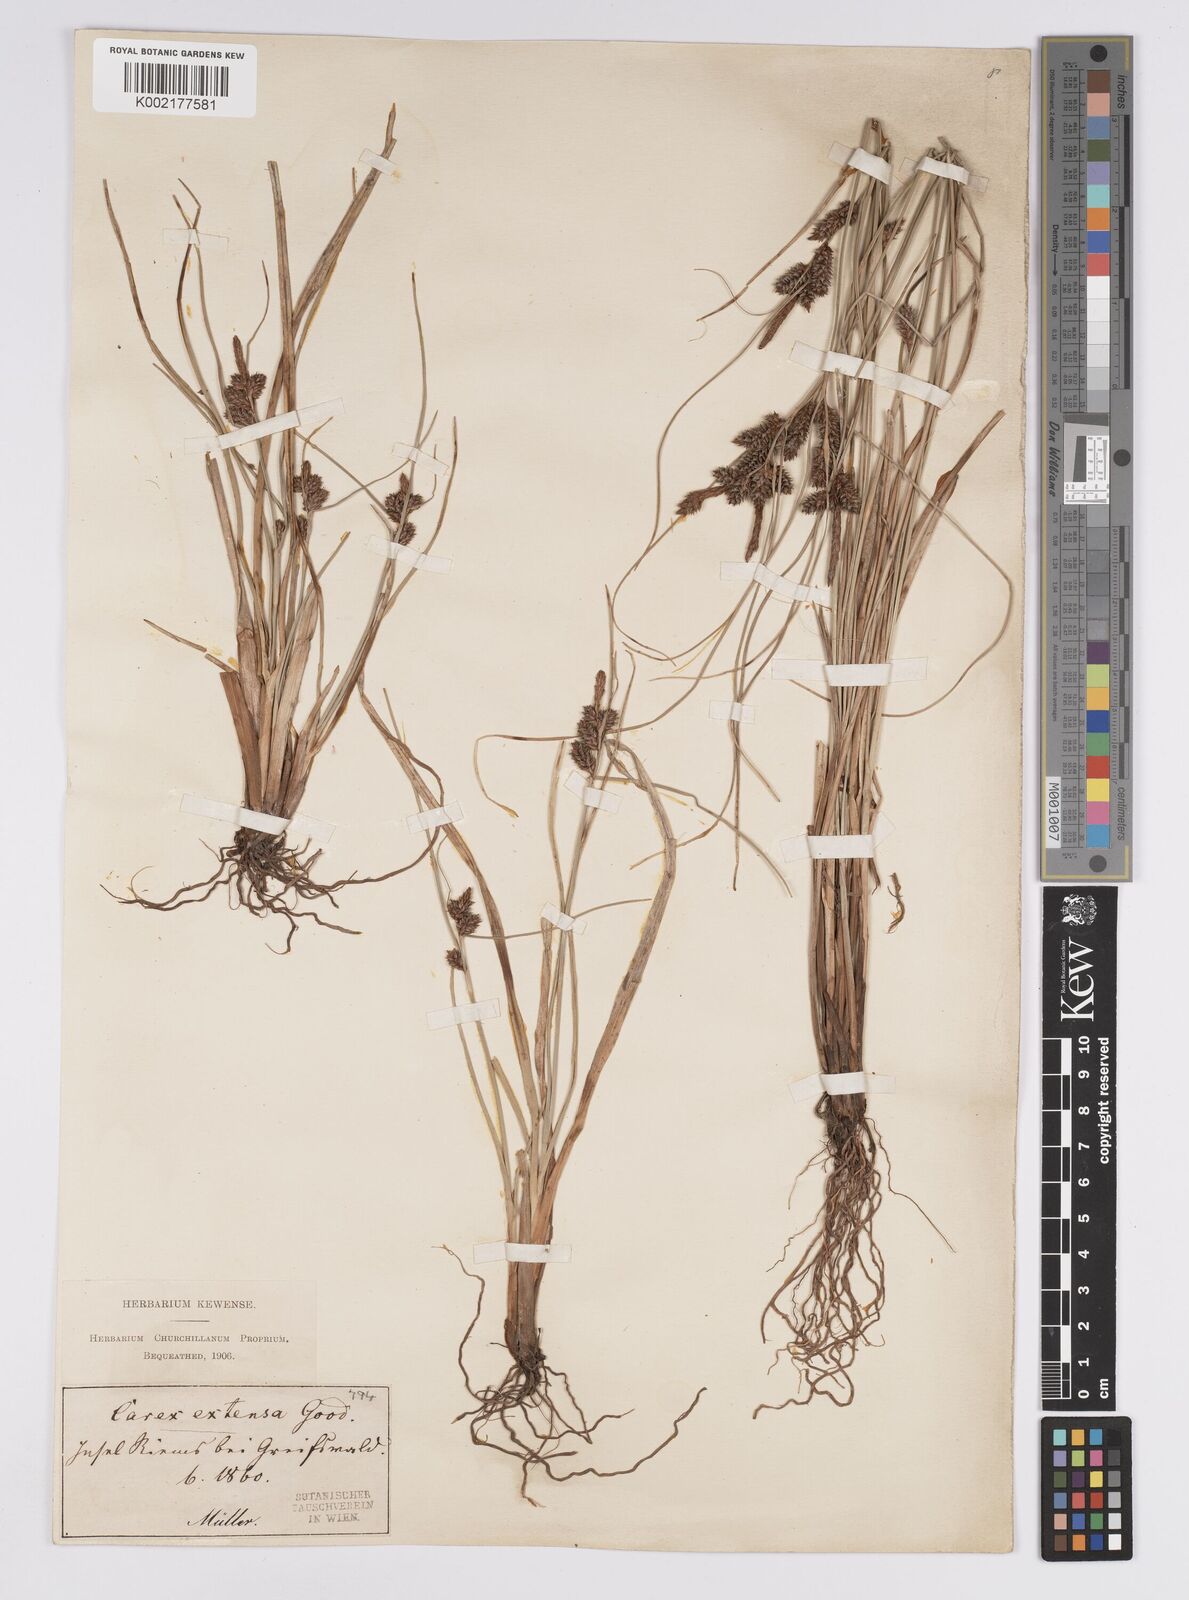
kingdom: Plantae
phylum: Tracheophyta
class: Liliopsida
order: Poales
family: Cyperaceae
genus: Carex
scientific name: Carex extensa
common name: Long-bracted sedge
